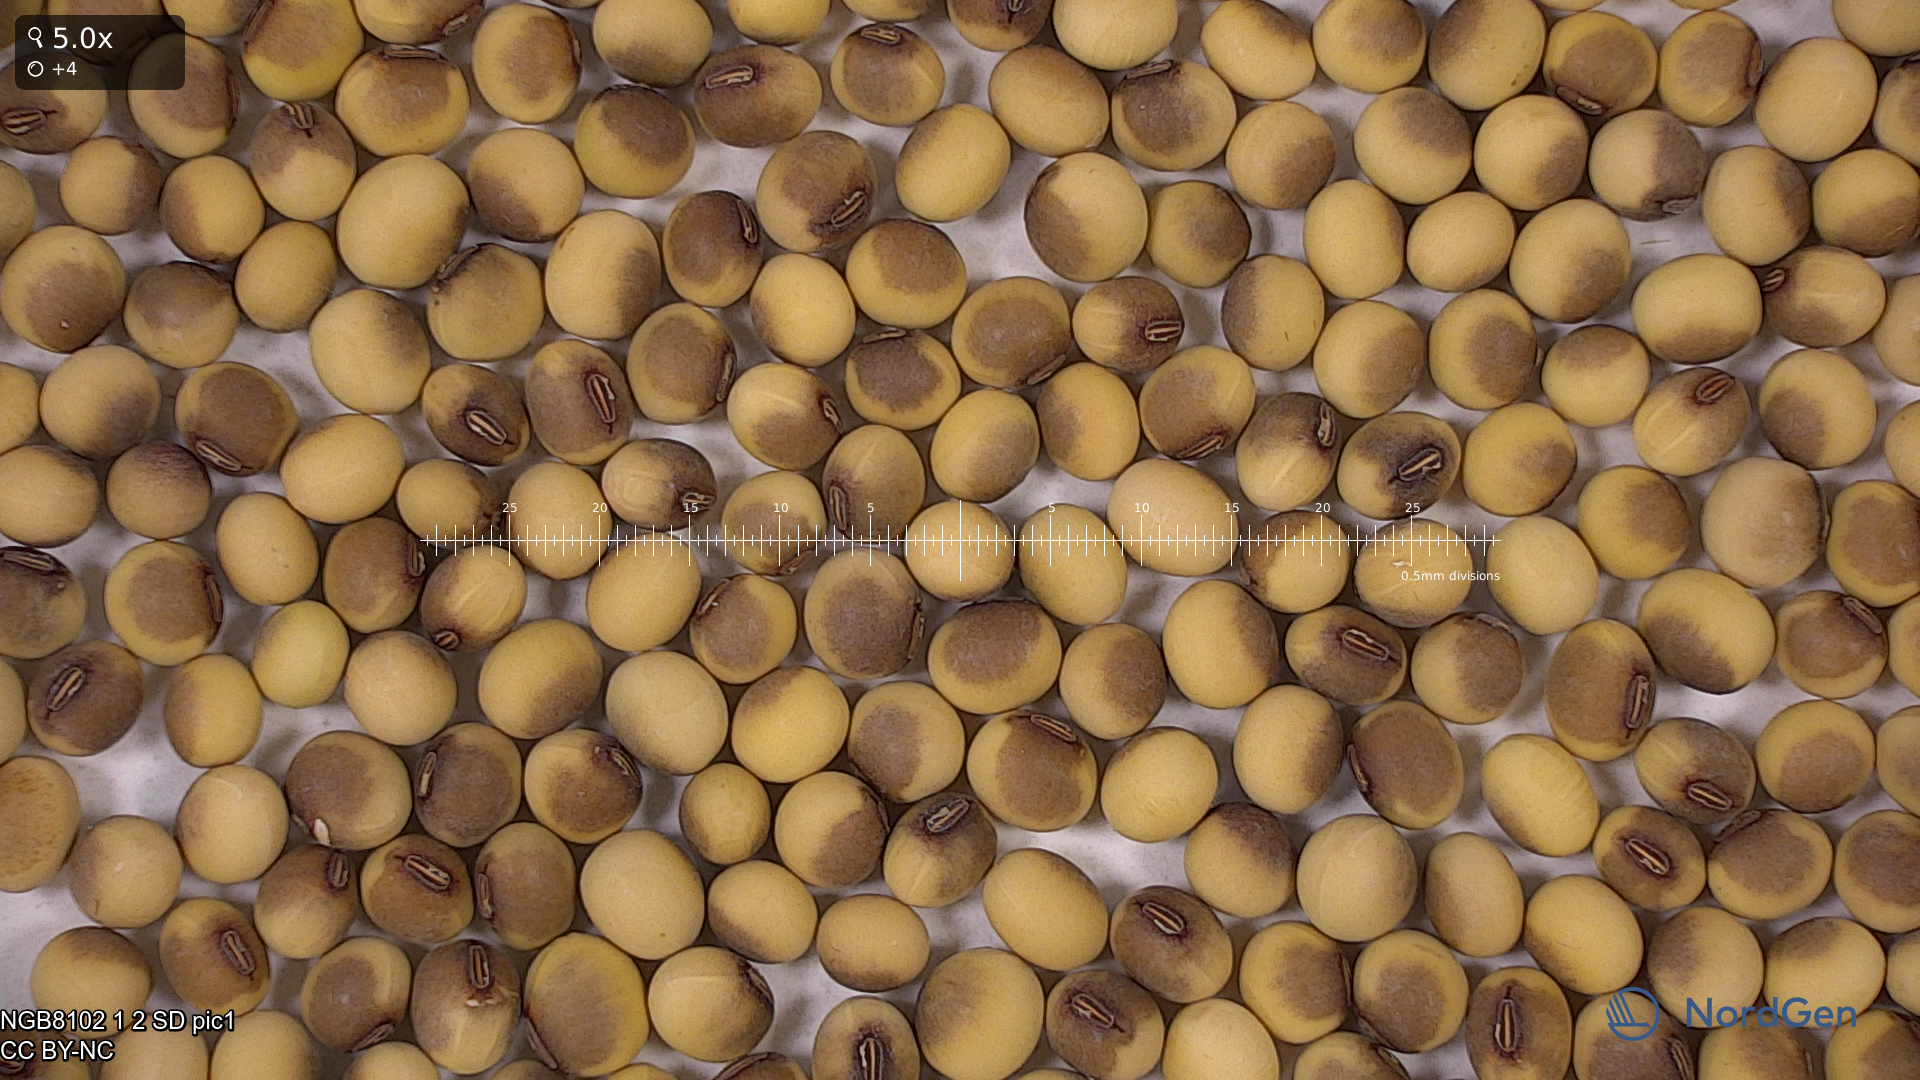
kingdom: Plantae
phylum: Tracheophyta
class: Magnoliopsida
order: Fabales
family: Fabaceae
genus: Glycine
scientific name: Glycine max
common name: Soya-bean
